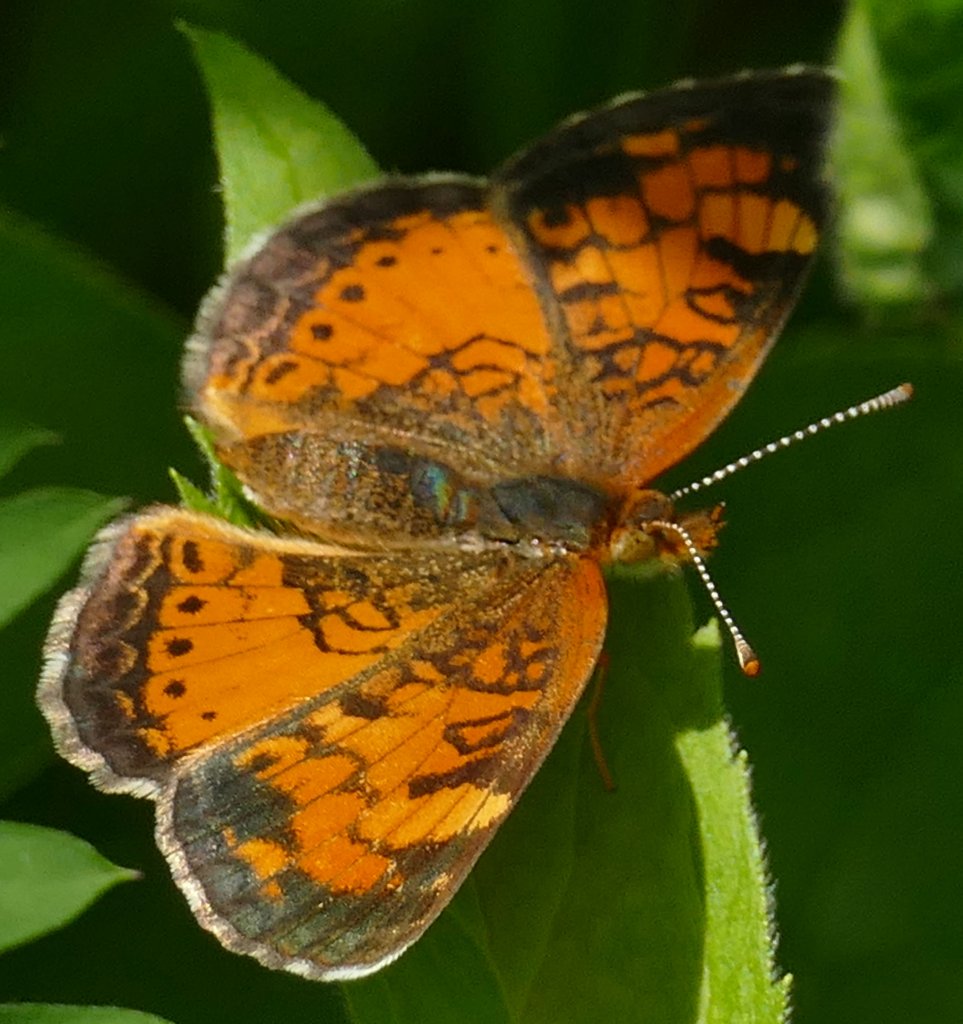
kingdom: Animalia
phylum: Arthropoda
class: Insecta
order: Lepidoptera
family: Nymphalidae
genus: Phyciodes
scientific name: Phyciodes tharos
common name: Northern Crescent
